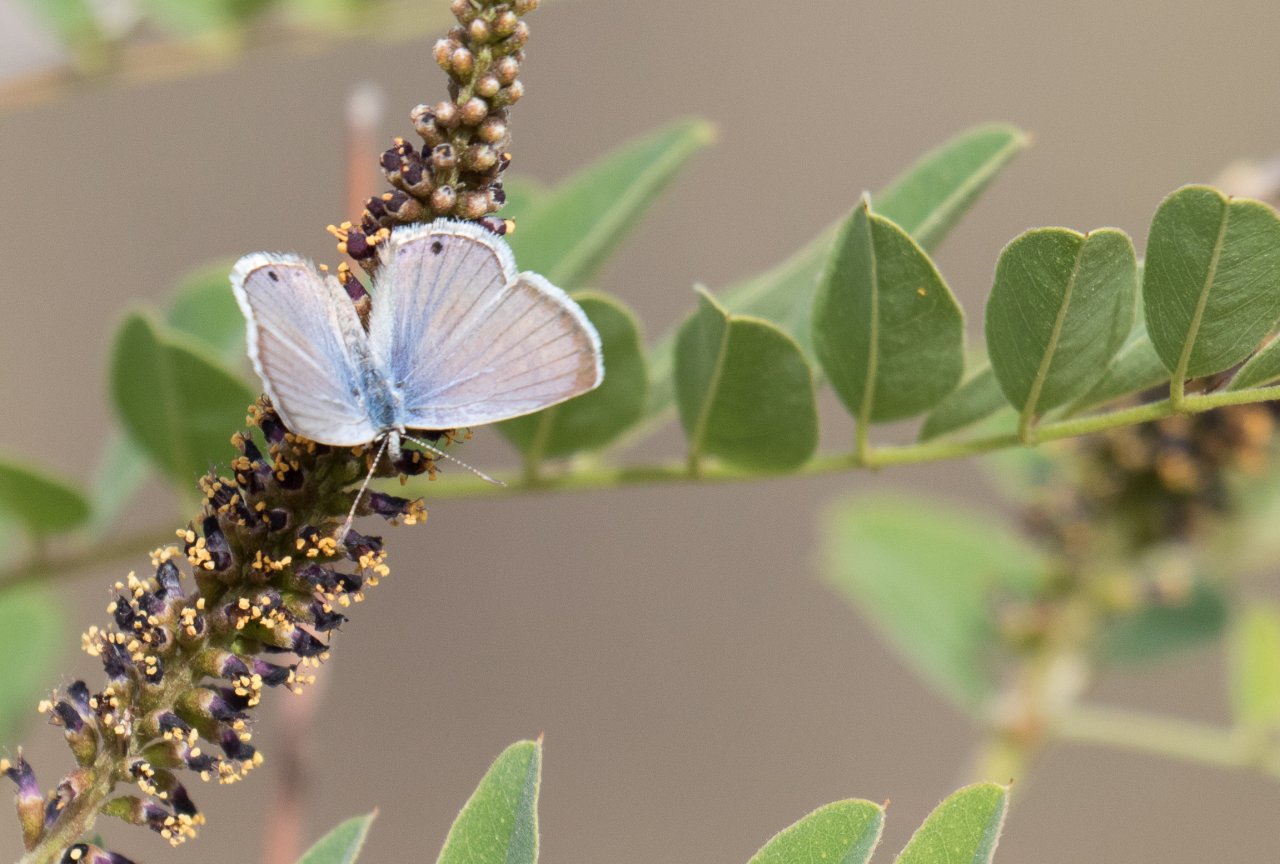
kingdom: Animalia
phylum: Arthropoda
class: Insecta
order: Lepidoptera
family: Lycaenidae
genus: Leptotes
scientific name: Leptotes marina
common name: Marine Blue
